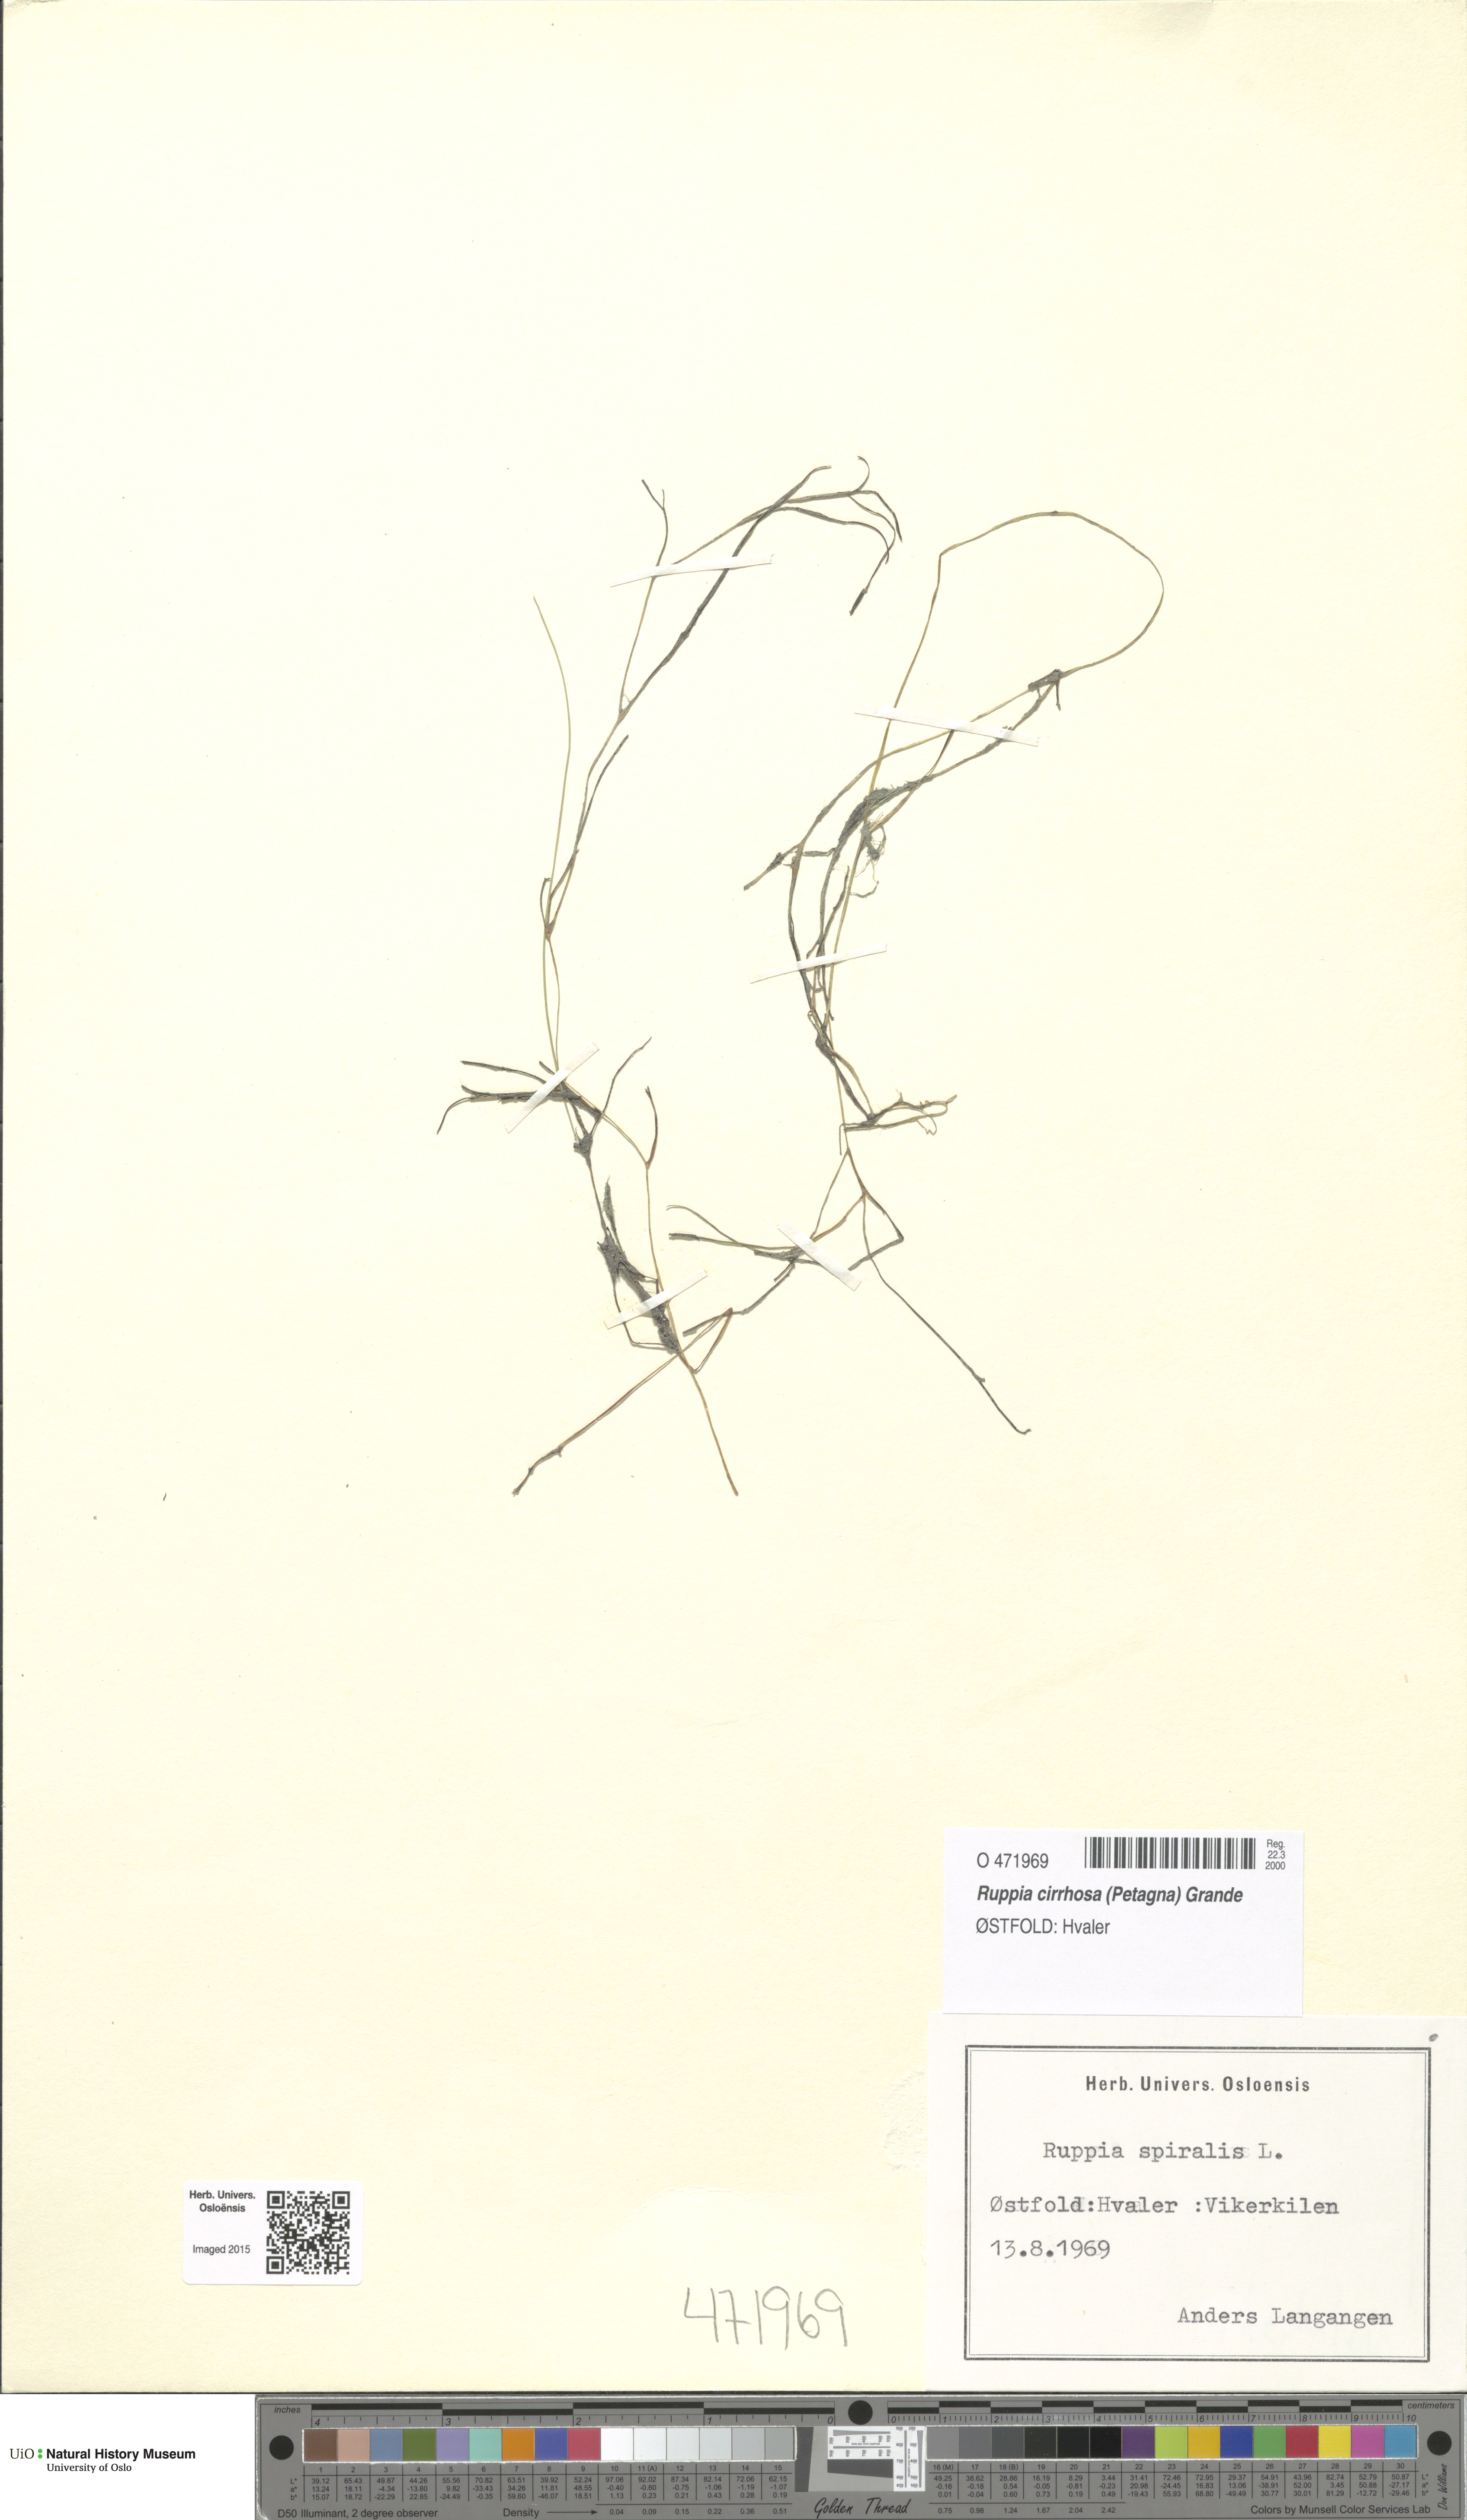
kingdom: Plantae
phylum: Tracheophyta
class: Liliopsida
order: Alismatales
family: Ruppiaceae
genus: Ruppia
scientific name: Ruppia cirrhosa
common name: Spiral tasselweed
